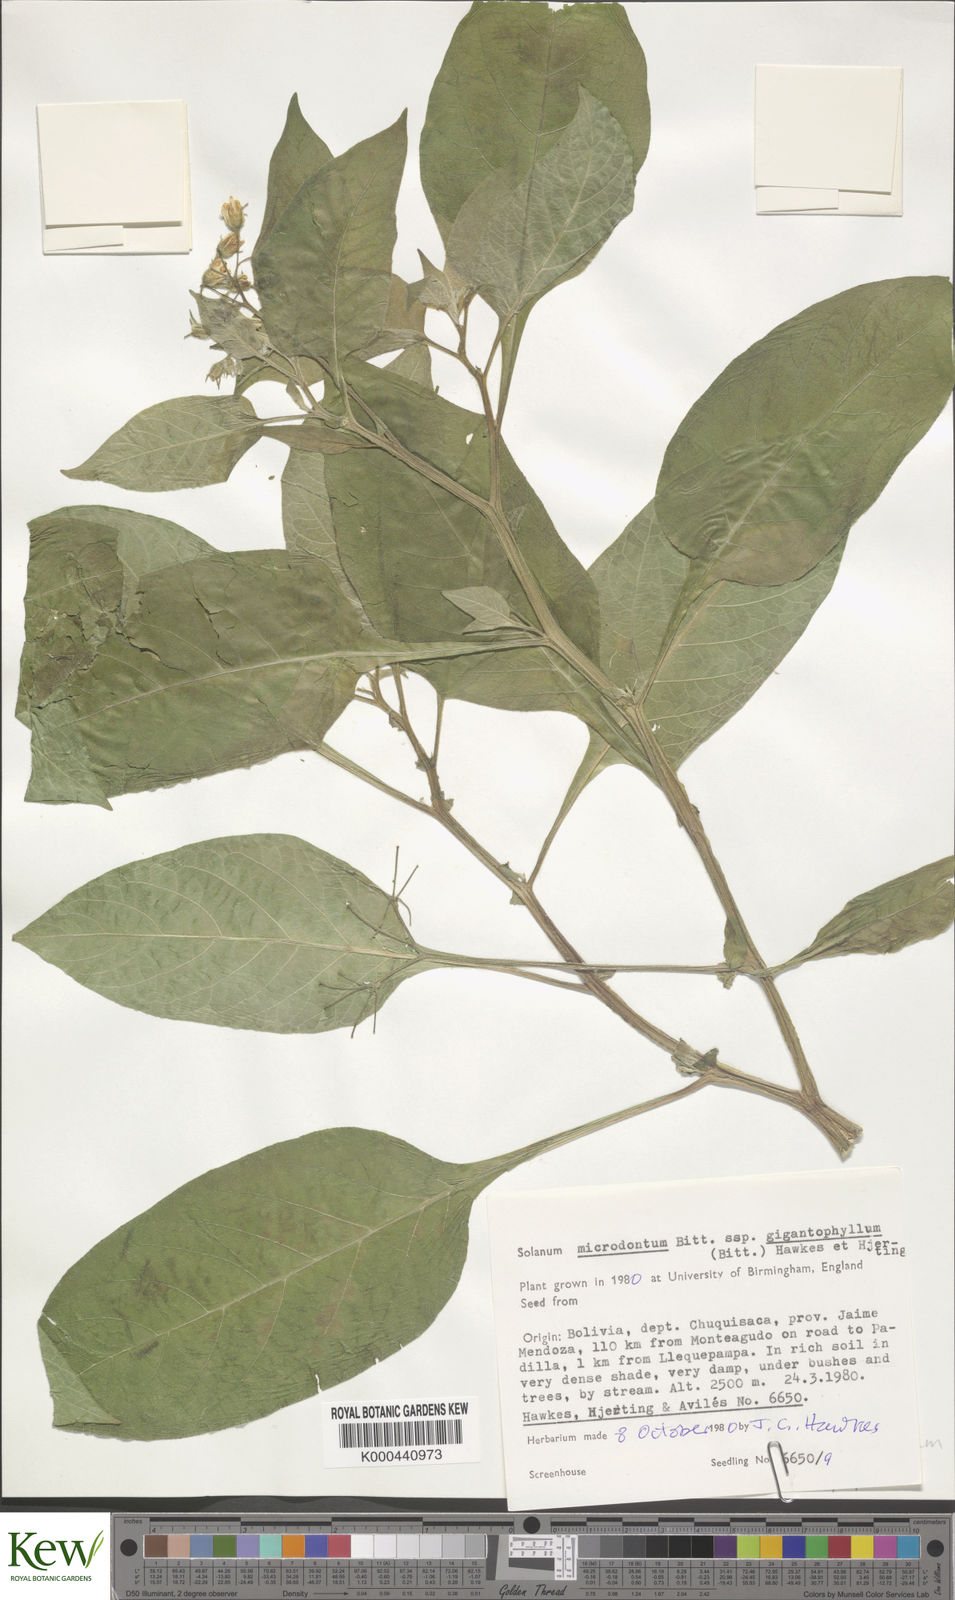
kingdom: Plantae
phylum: Tracheophyta
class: Magnoliopsida
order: Solanales
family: Solanaceae
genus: Solanum
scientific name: Solanum microdontum
